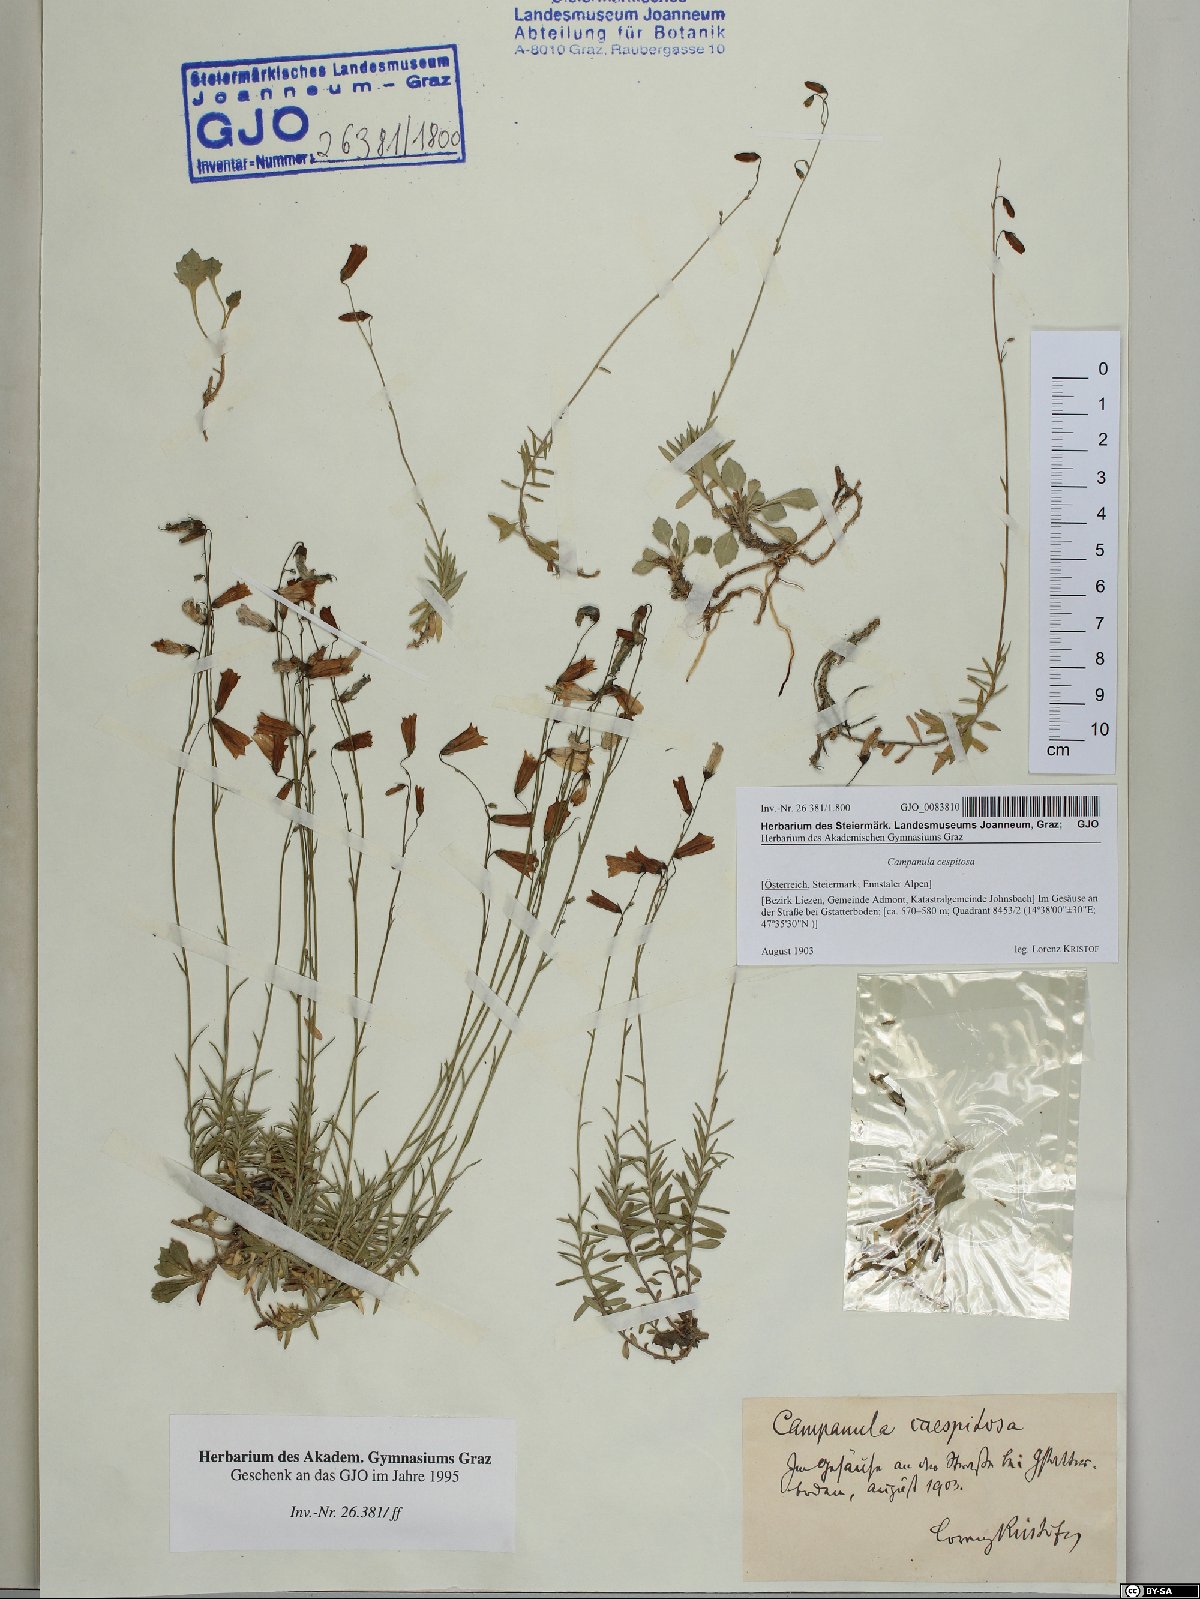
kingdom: Plantae
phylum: Tracheophyta
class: Magnoliopsida
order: Asterales
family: Campanulaceae
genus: Campanula
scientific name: Campanula cespitosa
